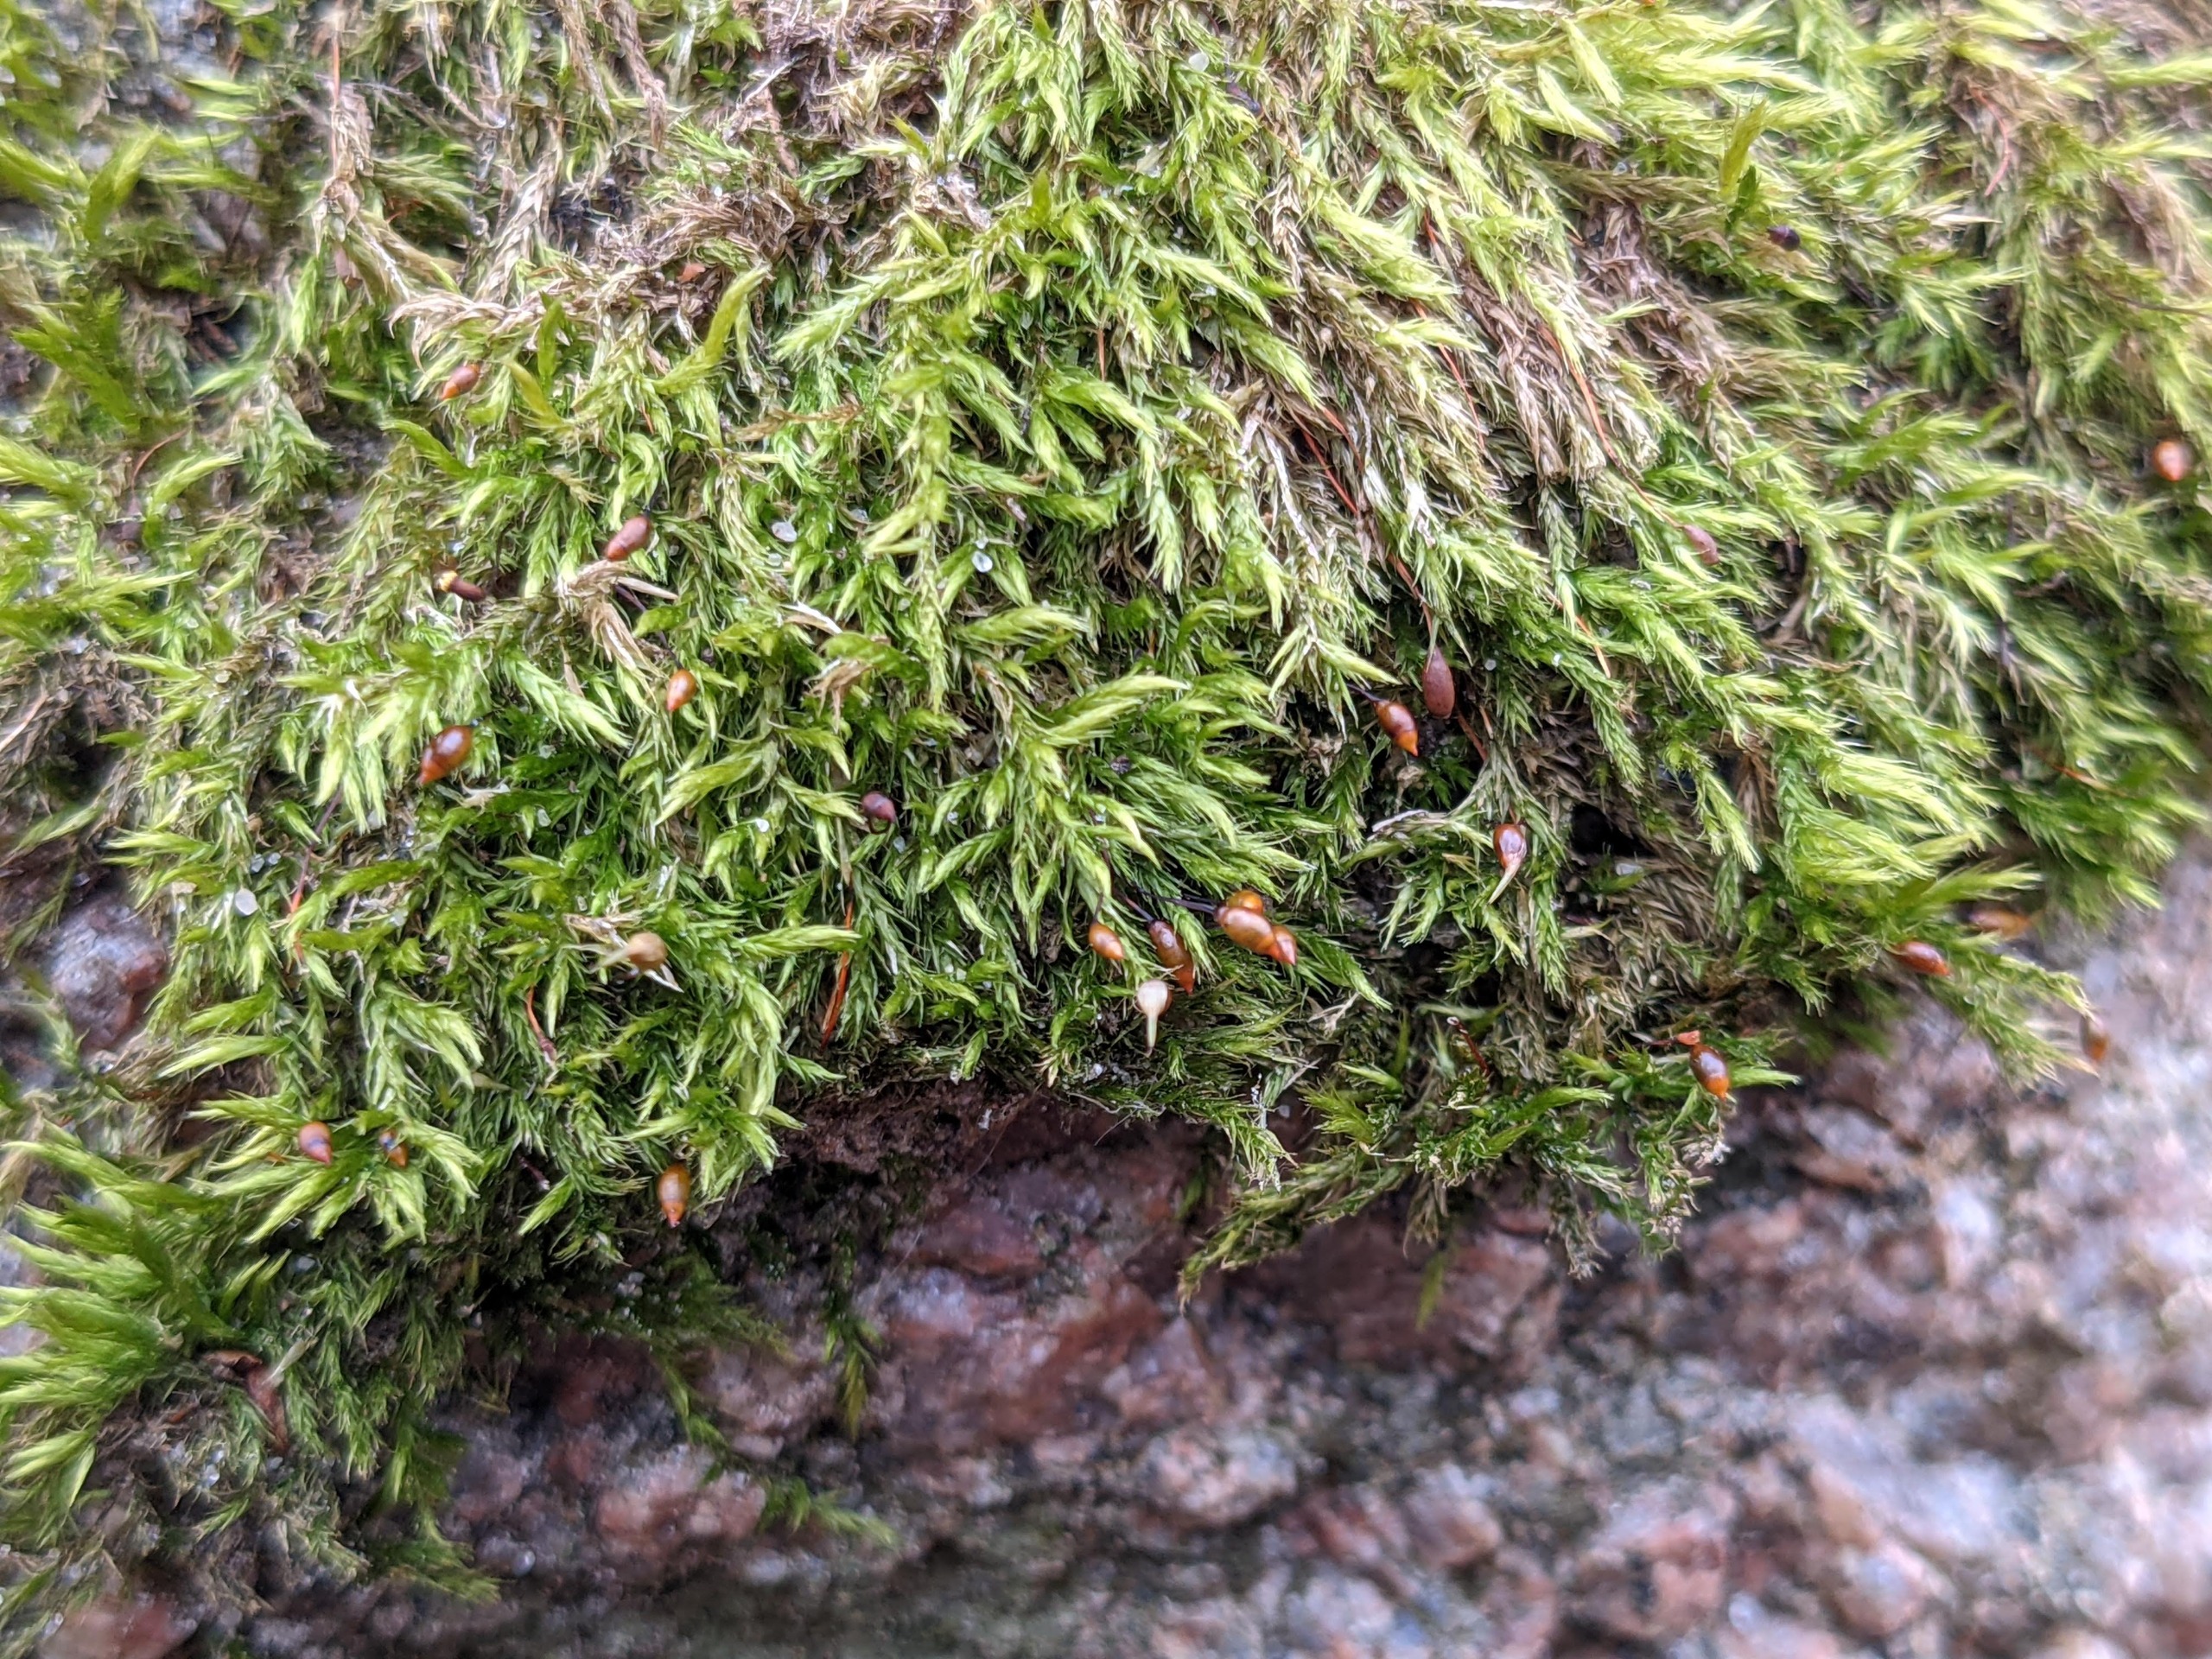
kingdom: Plantae
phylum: Bryophyta
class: Bryopsida
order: Hypnales
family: Brachytheciaceae
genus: Sciuro-hypnum
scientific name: Sciuro-hypnum populeum
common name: Park-kortkapsel
